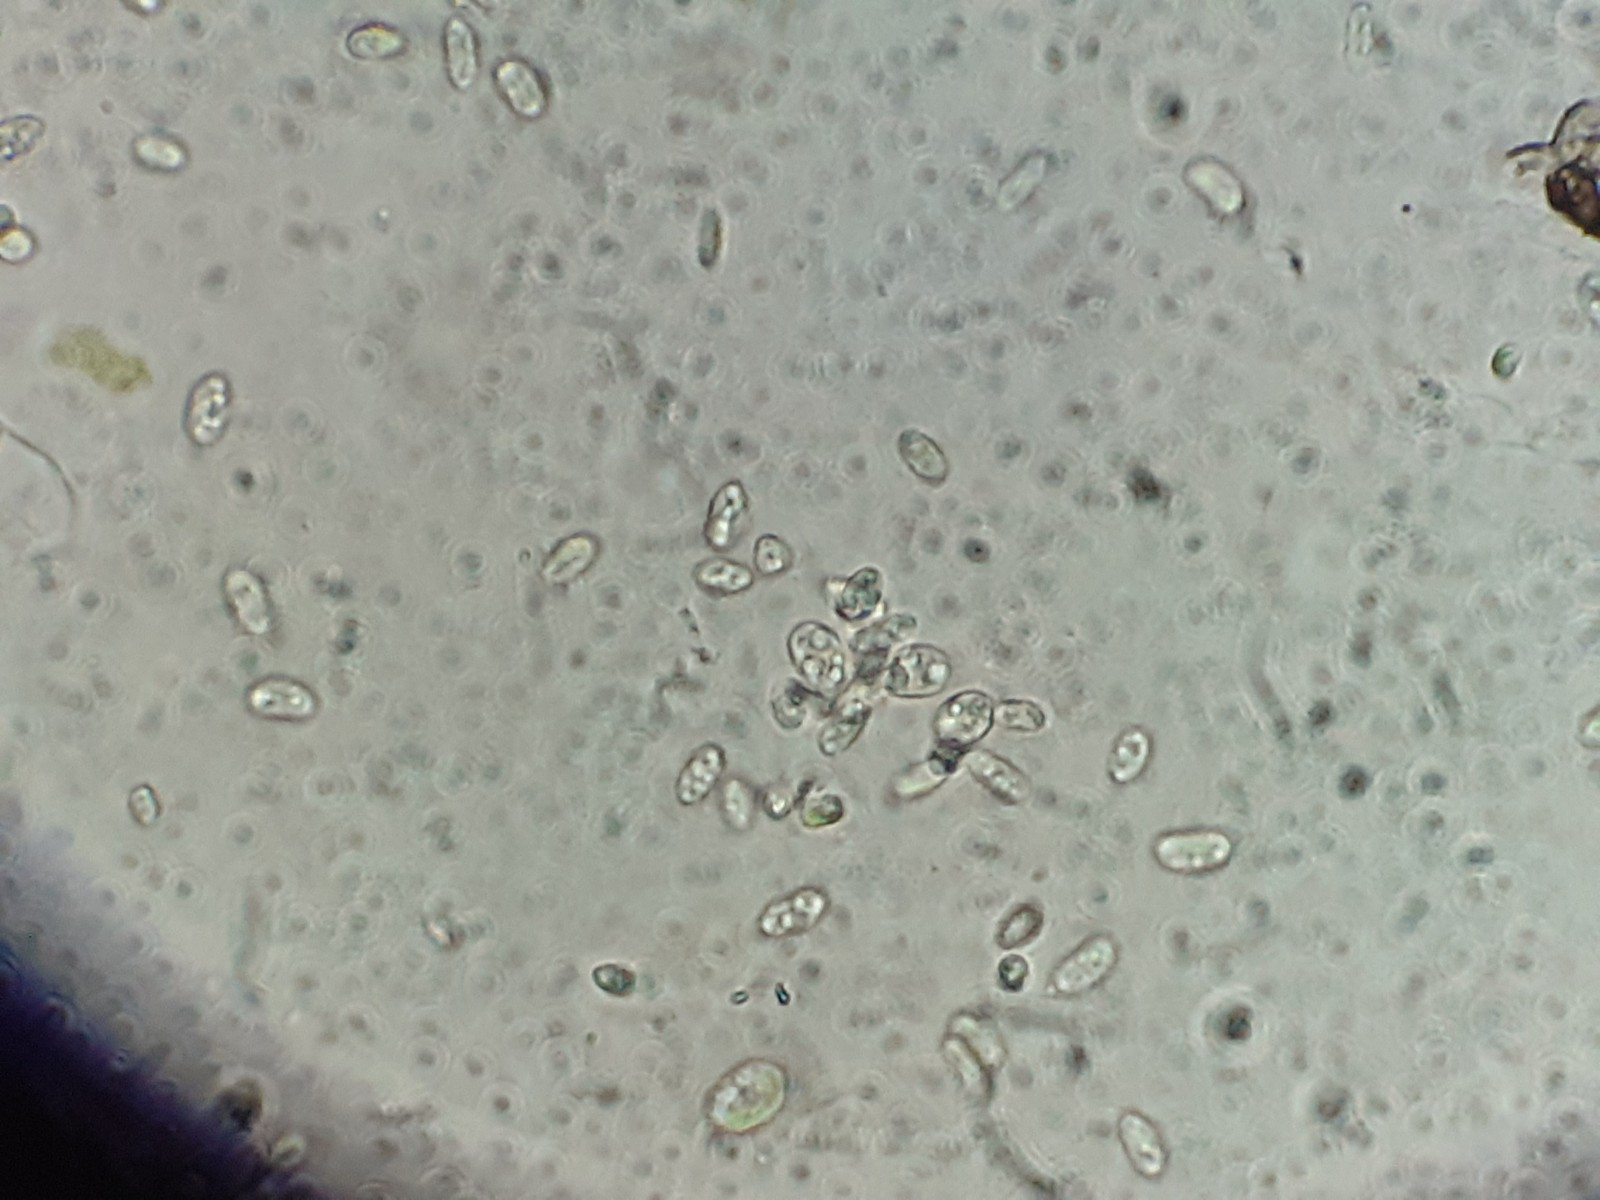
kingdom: Fungi
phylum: Ascomycota
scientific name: Ascomycota
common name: sæksvampe
